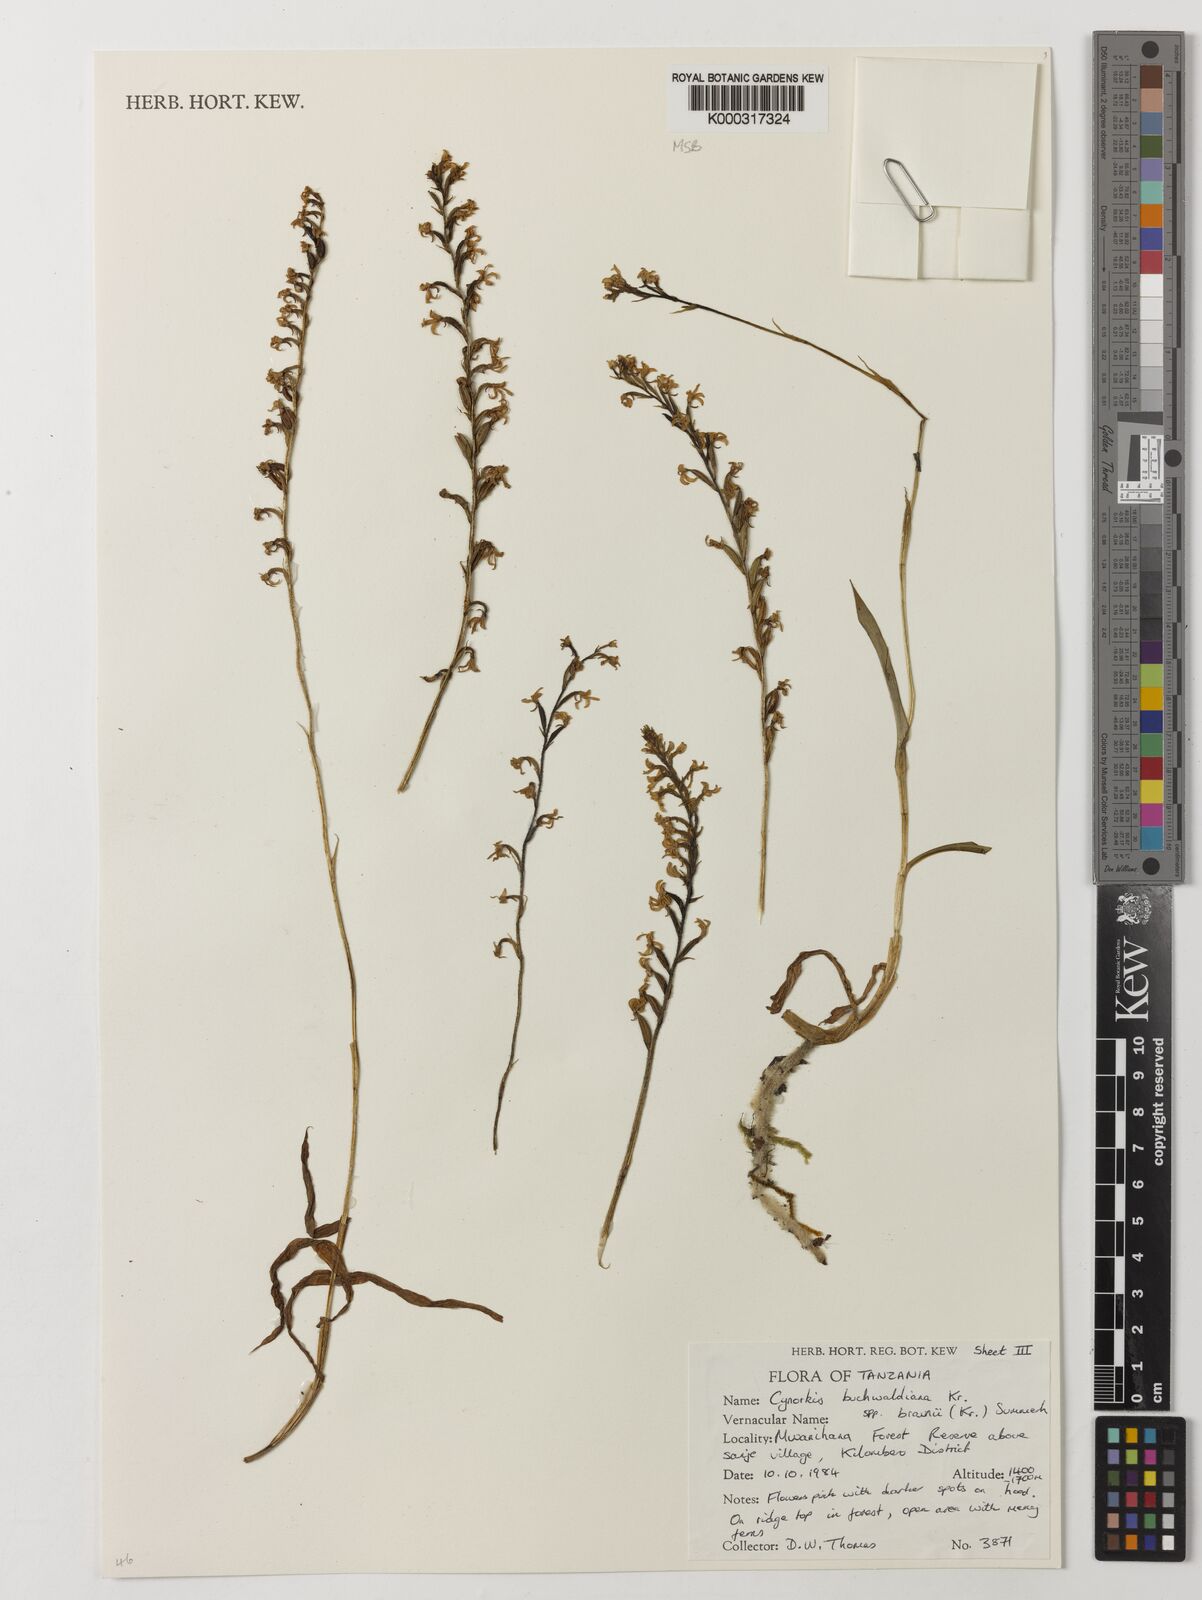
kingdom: Plantae
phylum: Tracheophyta
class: Liliopsida
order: Asparagales
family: Orchidaceae
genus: Cynorkis
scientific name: Cynorkis buchwaldiana
